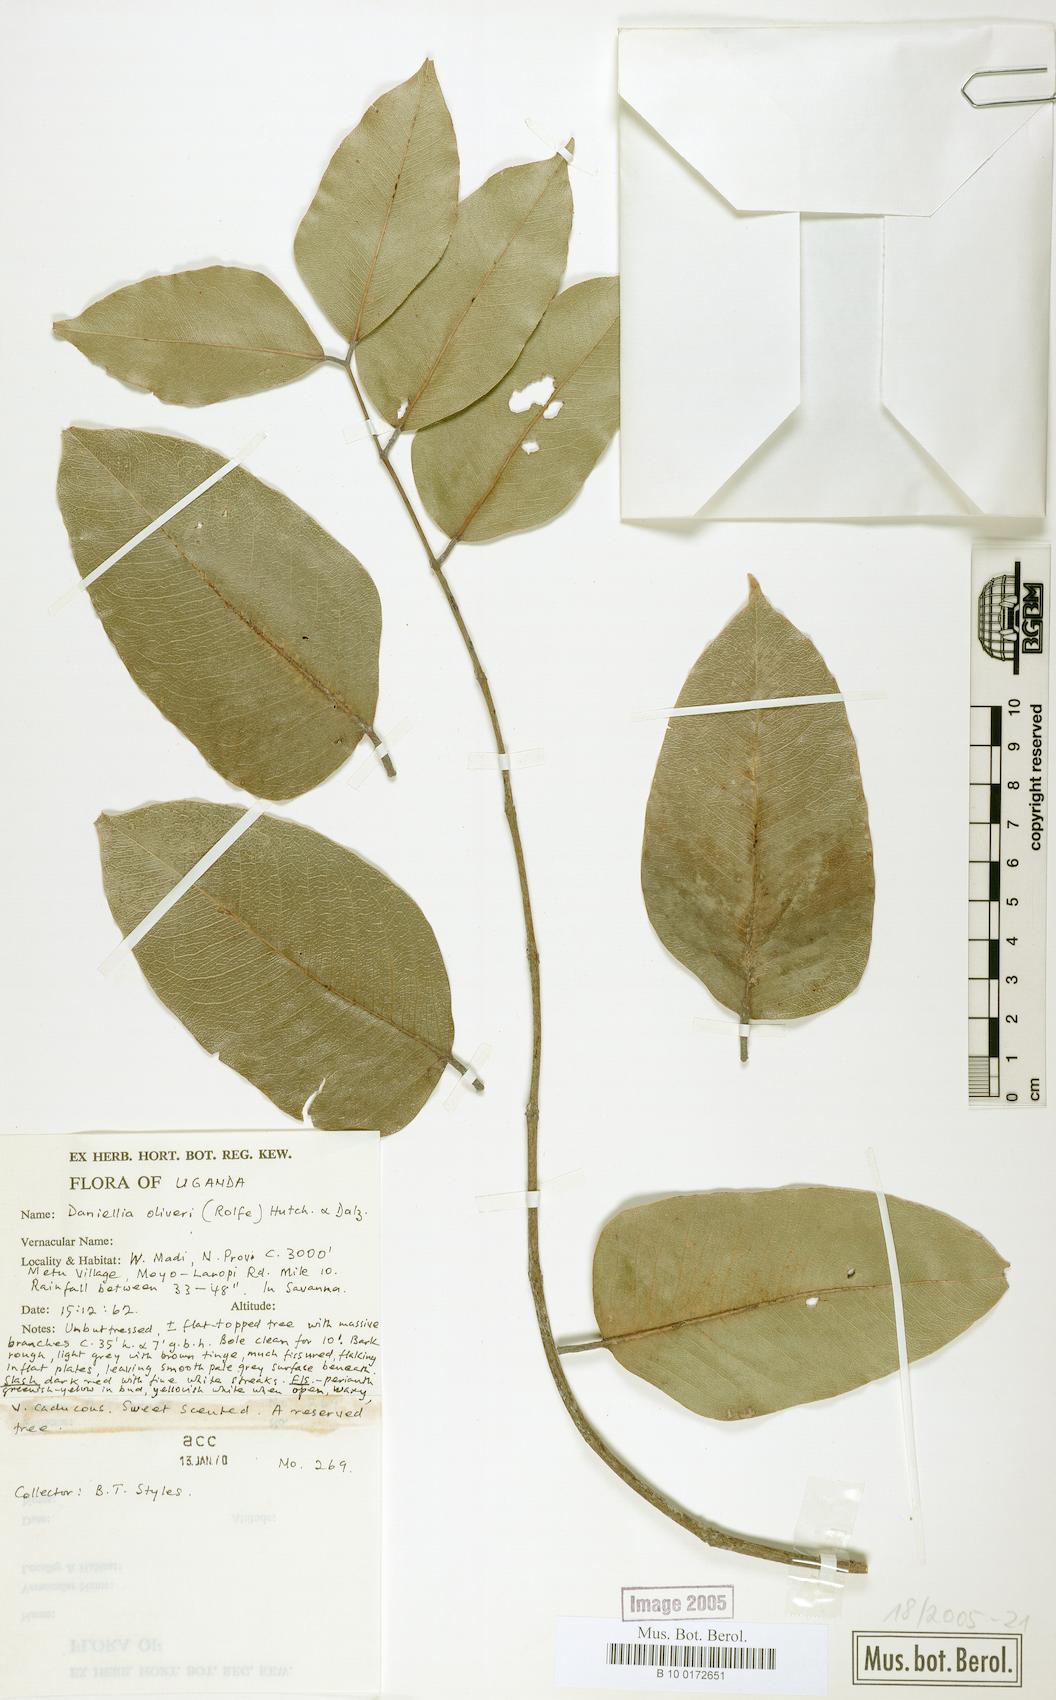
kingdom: Plantae
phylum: Tracheophyta
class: Magnoliopsida
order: Fabales
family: Fabaceae
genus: Daniellia
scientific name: Daniellia oliveri
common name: African copaiba balsamtree
